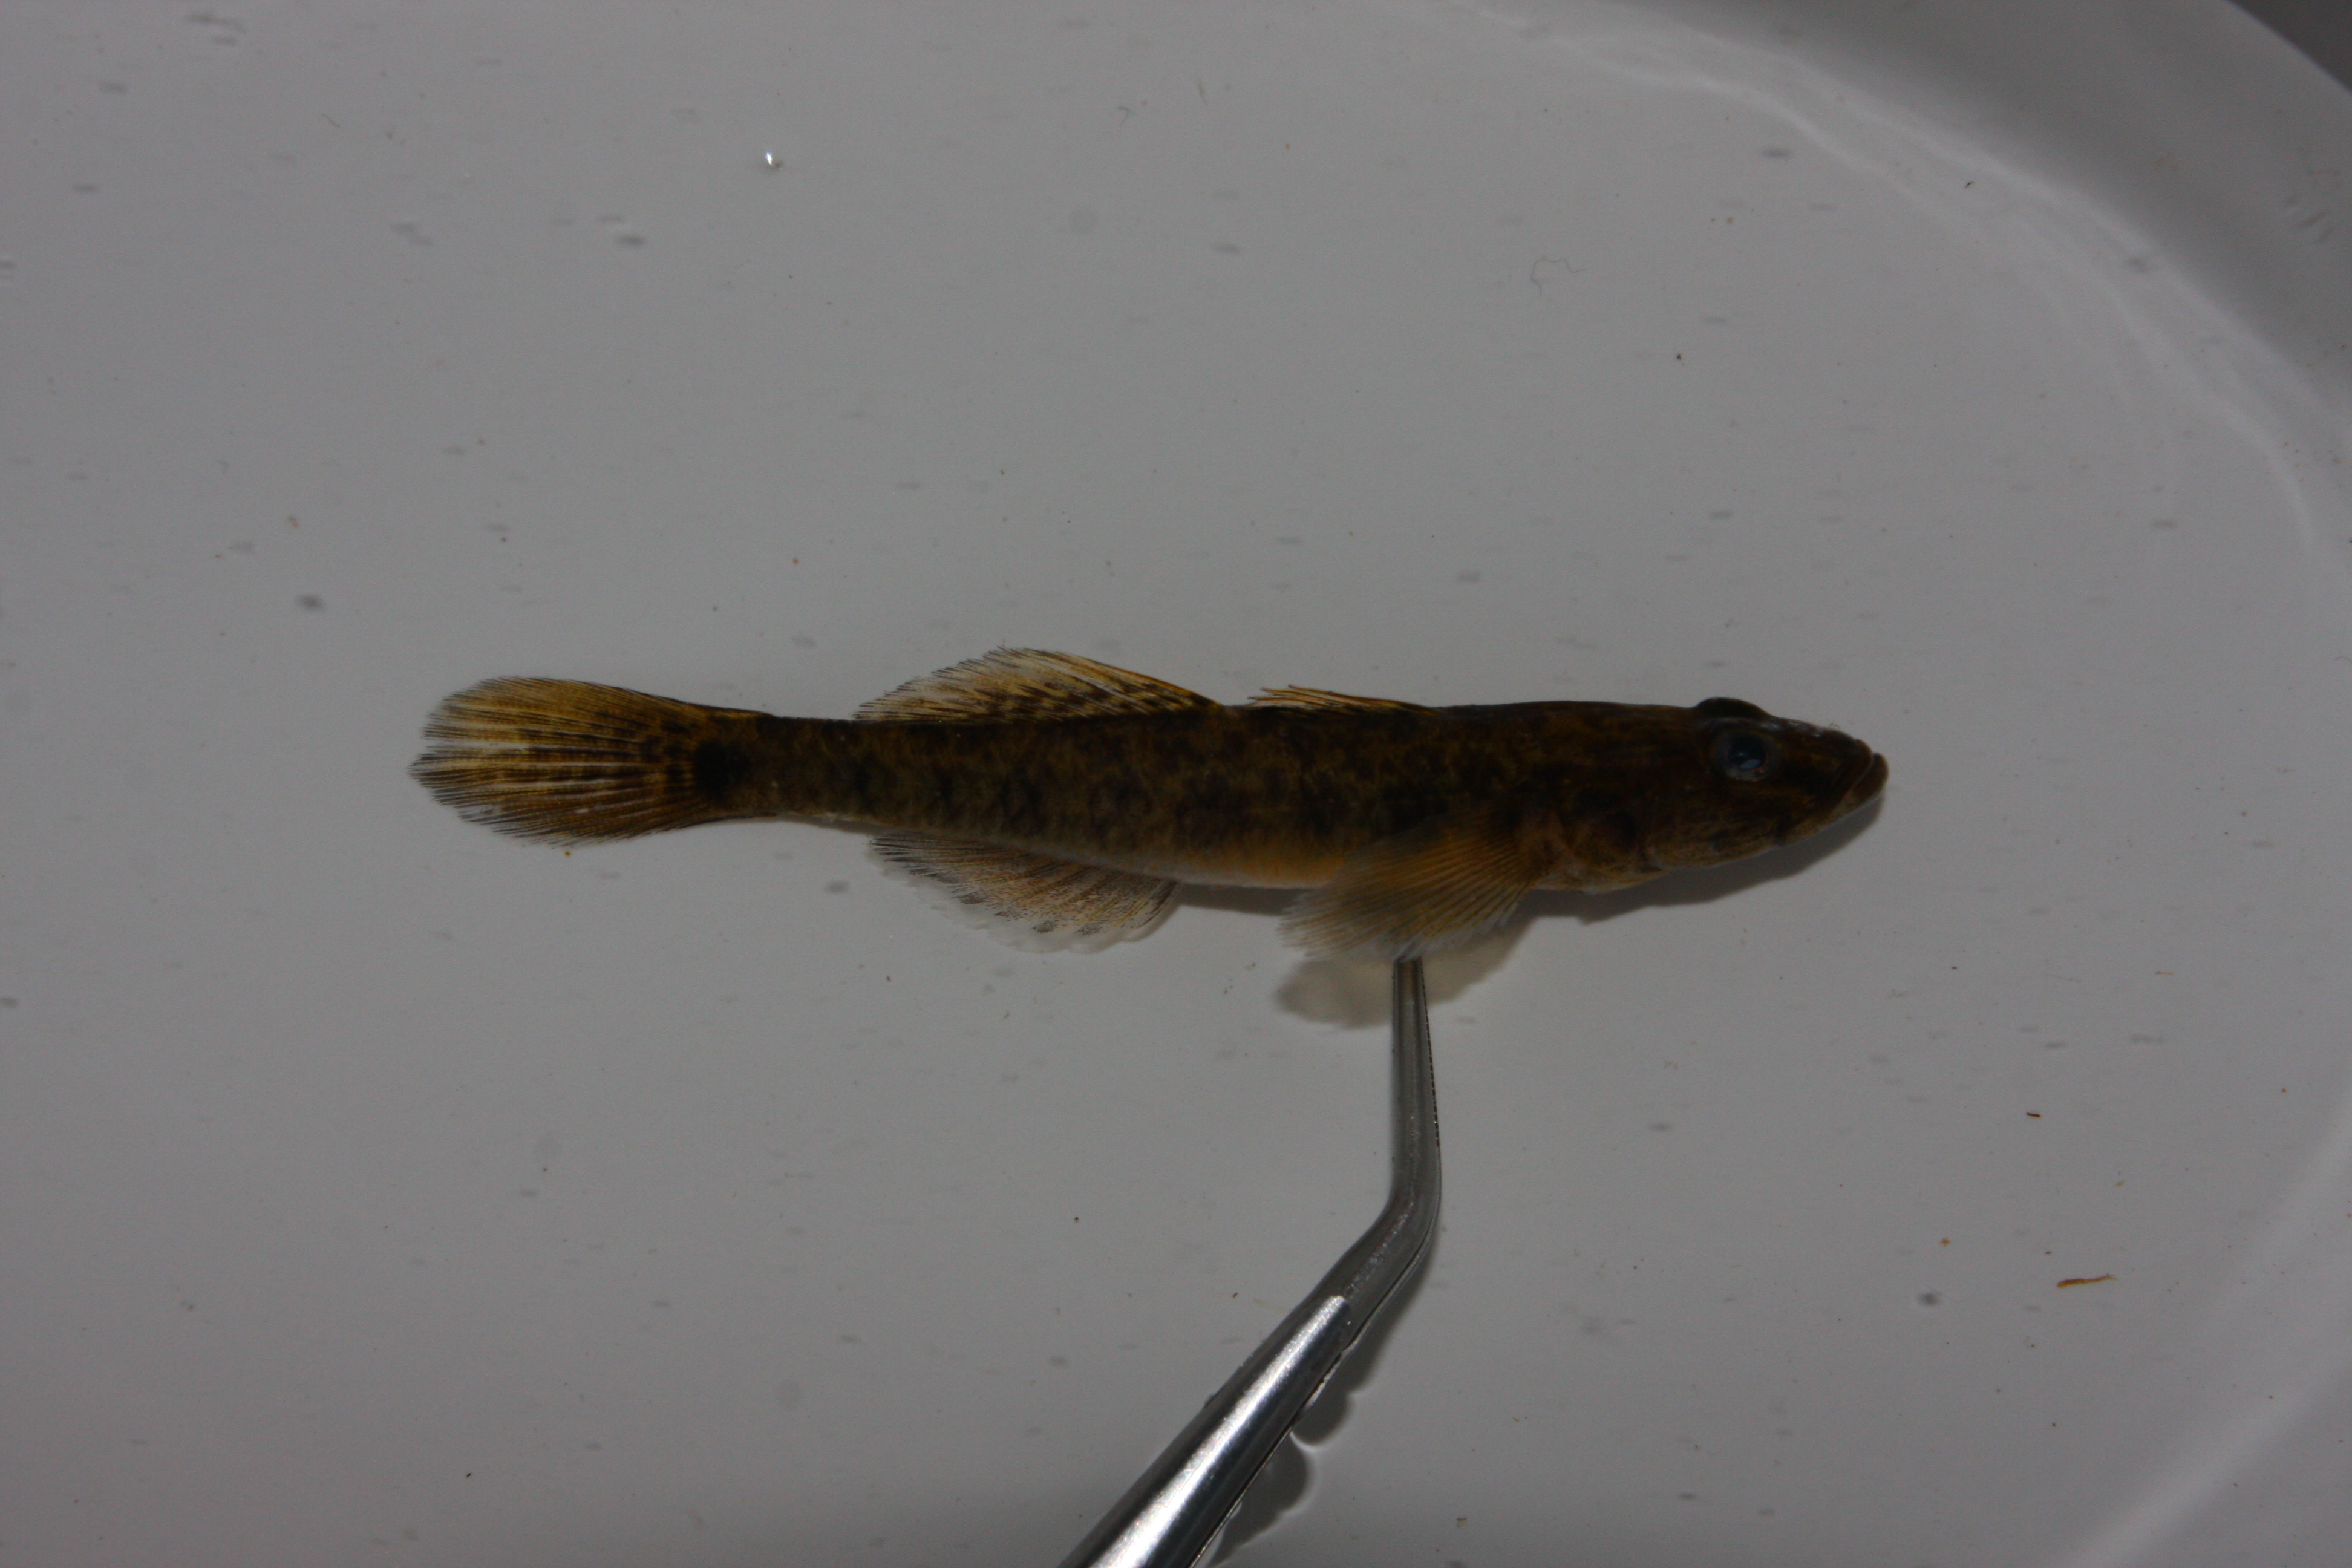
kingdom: Animalia
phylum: Chordata
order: Perciformes
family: Gobiidae
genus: Glossogobius
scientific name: Glossogobius giuris
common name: Tank goby
